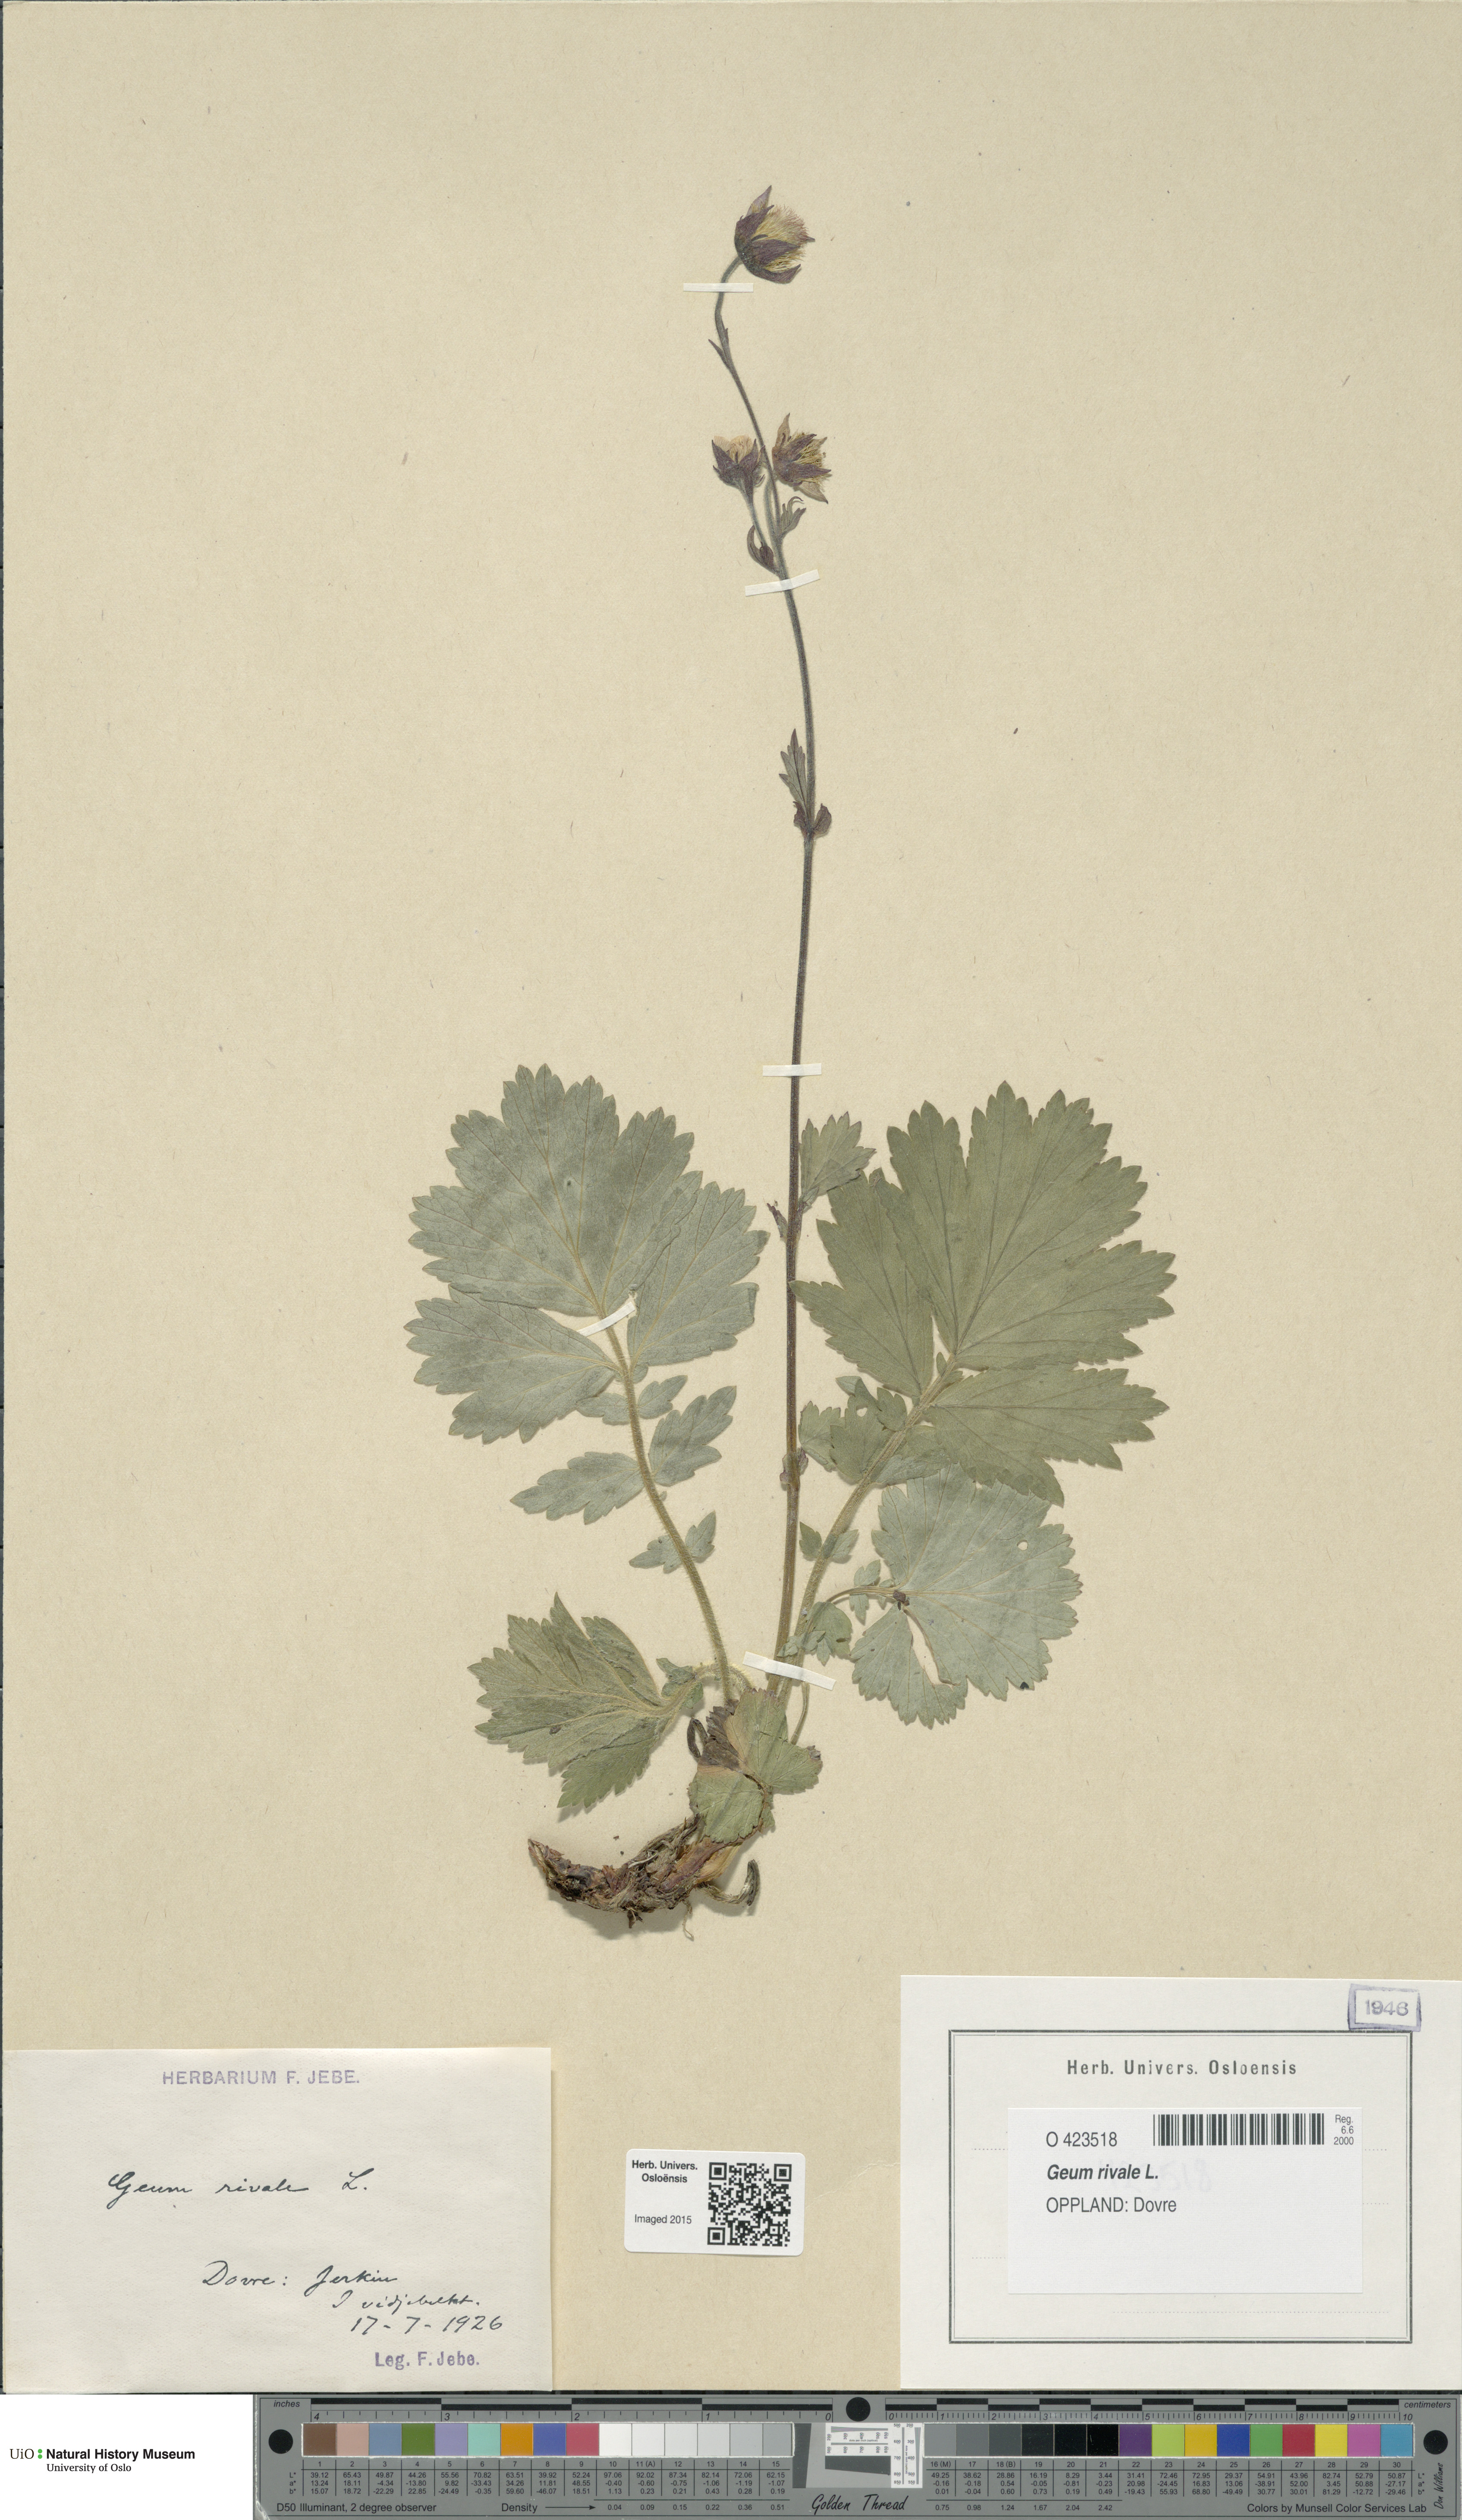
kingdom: Plantae
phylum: Tracheophyta
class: Magnoliopsida
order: Rosales
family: Rosaceae
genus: Geum
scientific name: Geum rivale
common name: Water avens
